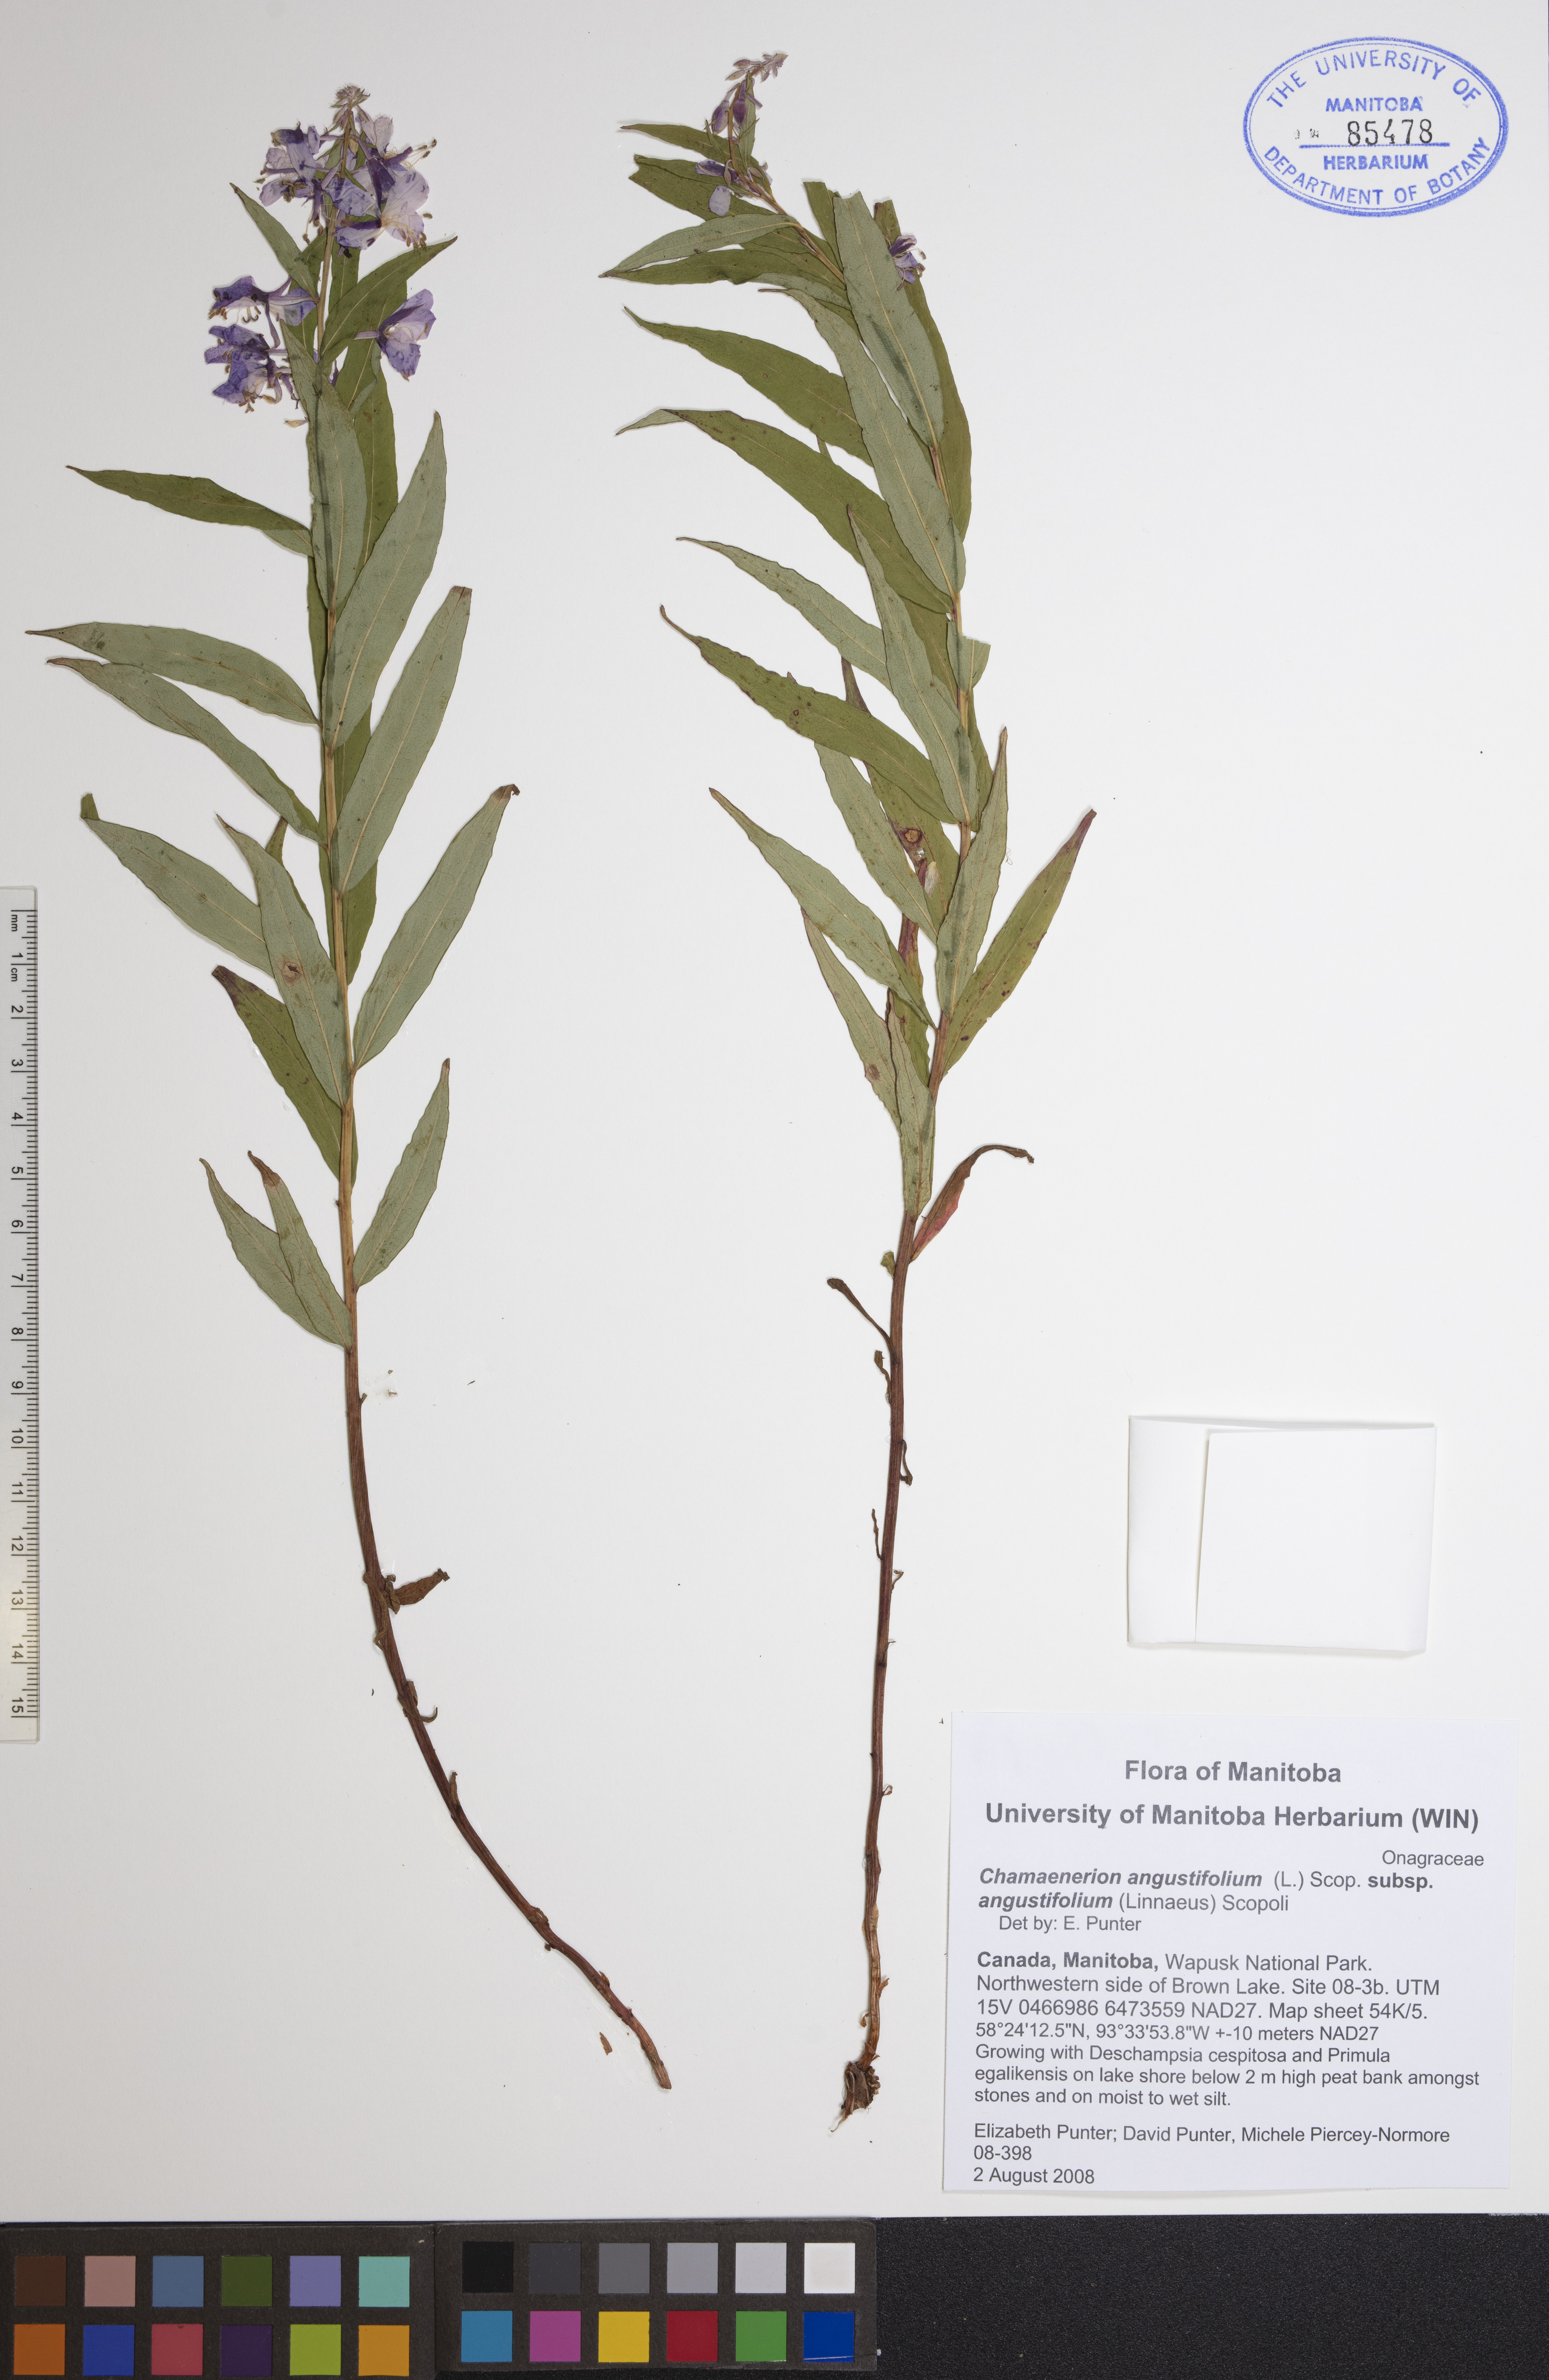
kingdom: Plantae
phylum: Tracheophyta
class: Magnoliopsida
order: Myrtales
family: Onagraceae
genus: Chamaenerion
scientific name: Chamaenerion angustifolium
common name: Fireweed
